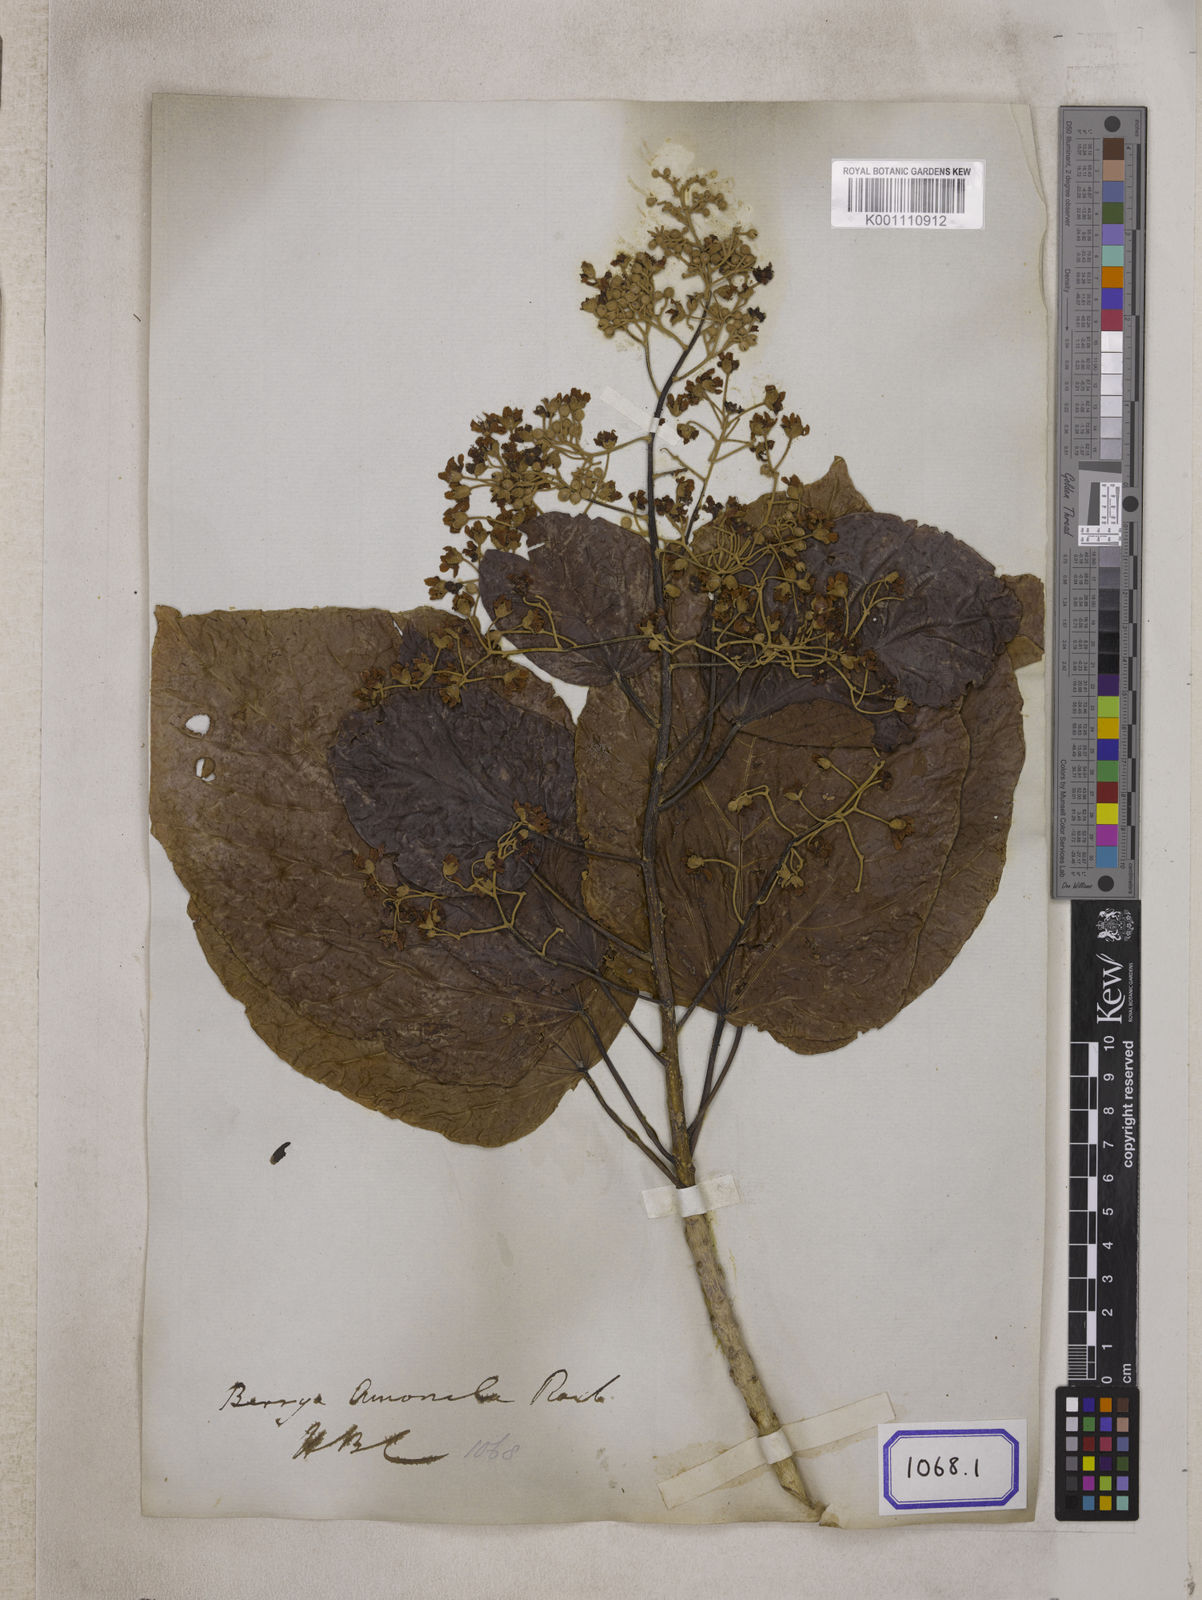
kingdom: Plantae
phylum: Tracheophyta
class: Magnoliopsida
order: Malvales
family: Malvaceae
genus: Berrya
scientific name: Berrya cordifolia
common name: Trincomalee
